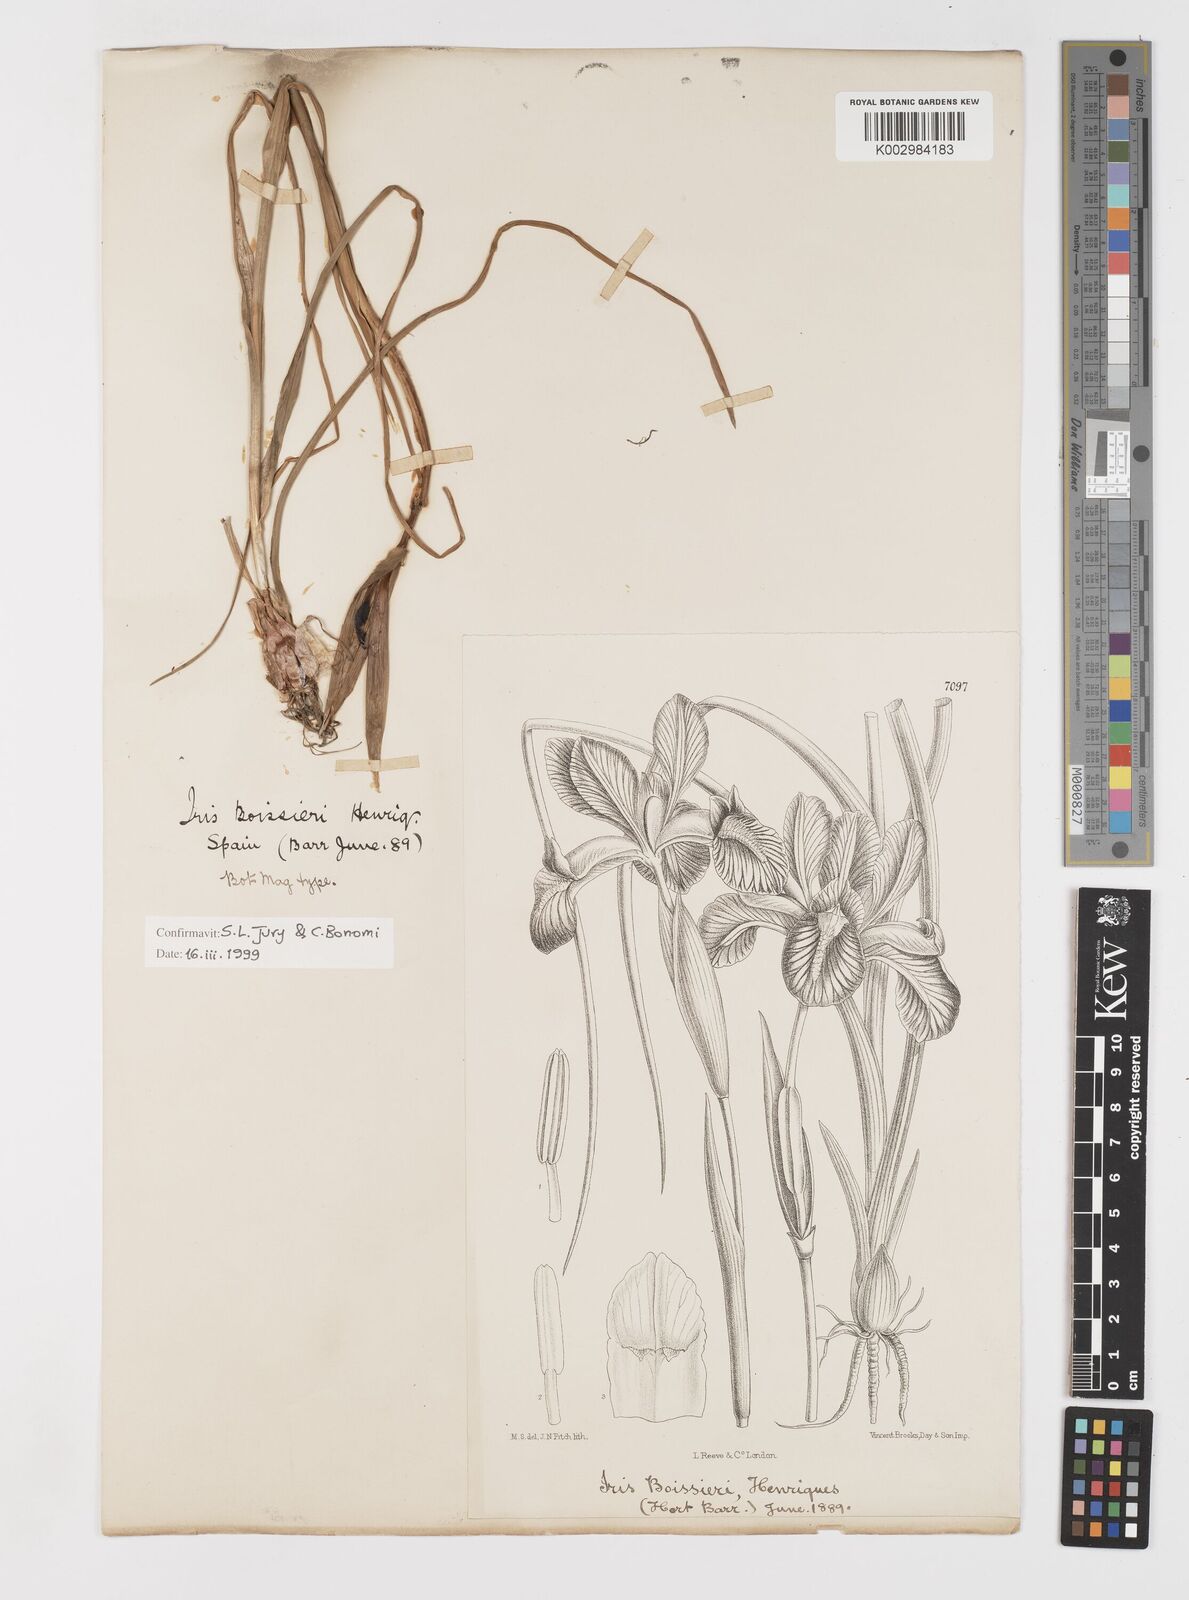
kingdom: Plantae
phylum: Tracheophyta
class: Liliopsida
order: Asparagales
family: Iridaceae
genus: Iris
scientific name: Iris boissieri
